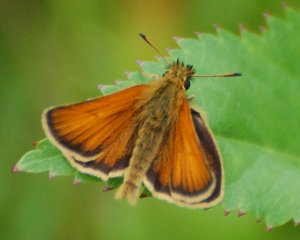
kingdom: Animalia
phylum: Arthropoda
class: Insecta
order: Lepidoptera
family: Hesperiidae
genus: Thymelicus
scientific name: Thymelicus lineola
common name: European Skipper
